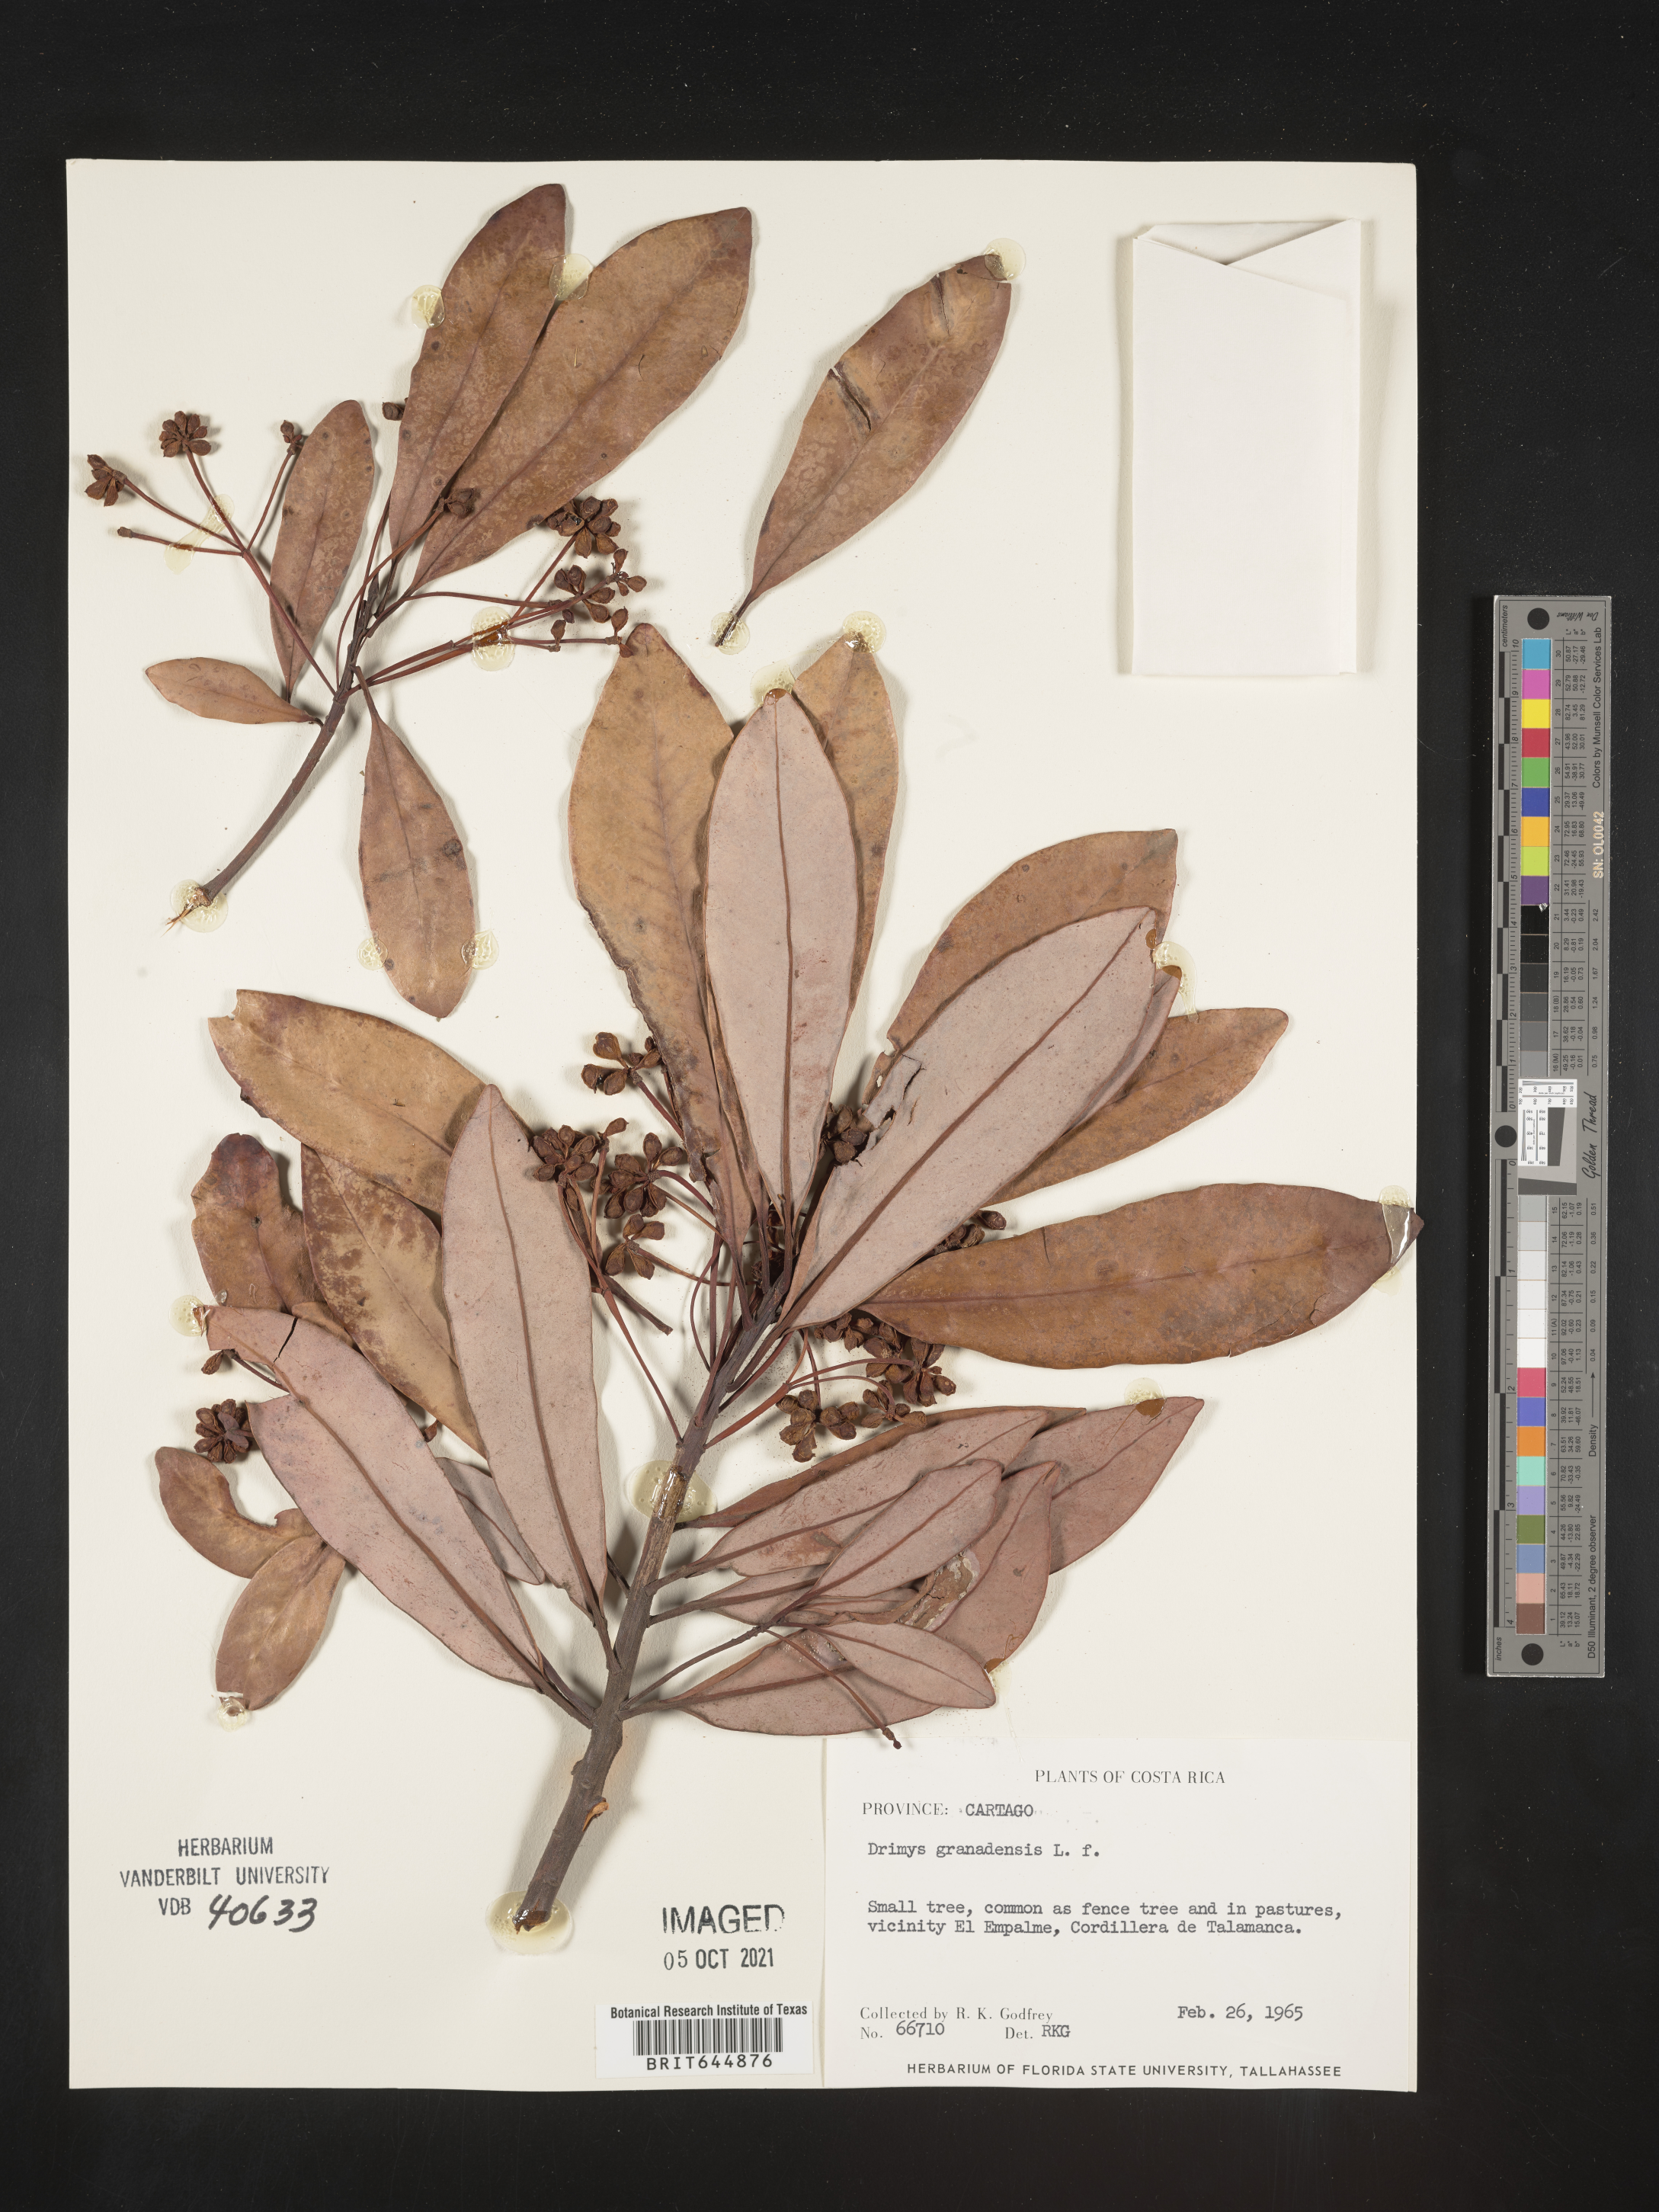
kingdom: Plantae
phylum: Tracheophyta
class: Magnoliopsida
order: Canellales
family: Winteraceae
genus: Drimys
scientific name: Drimys
